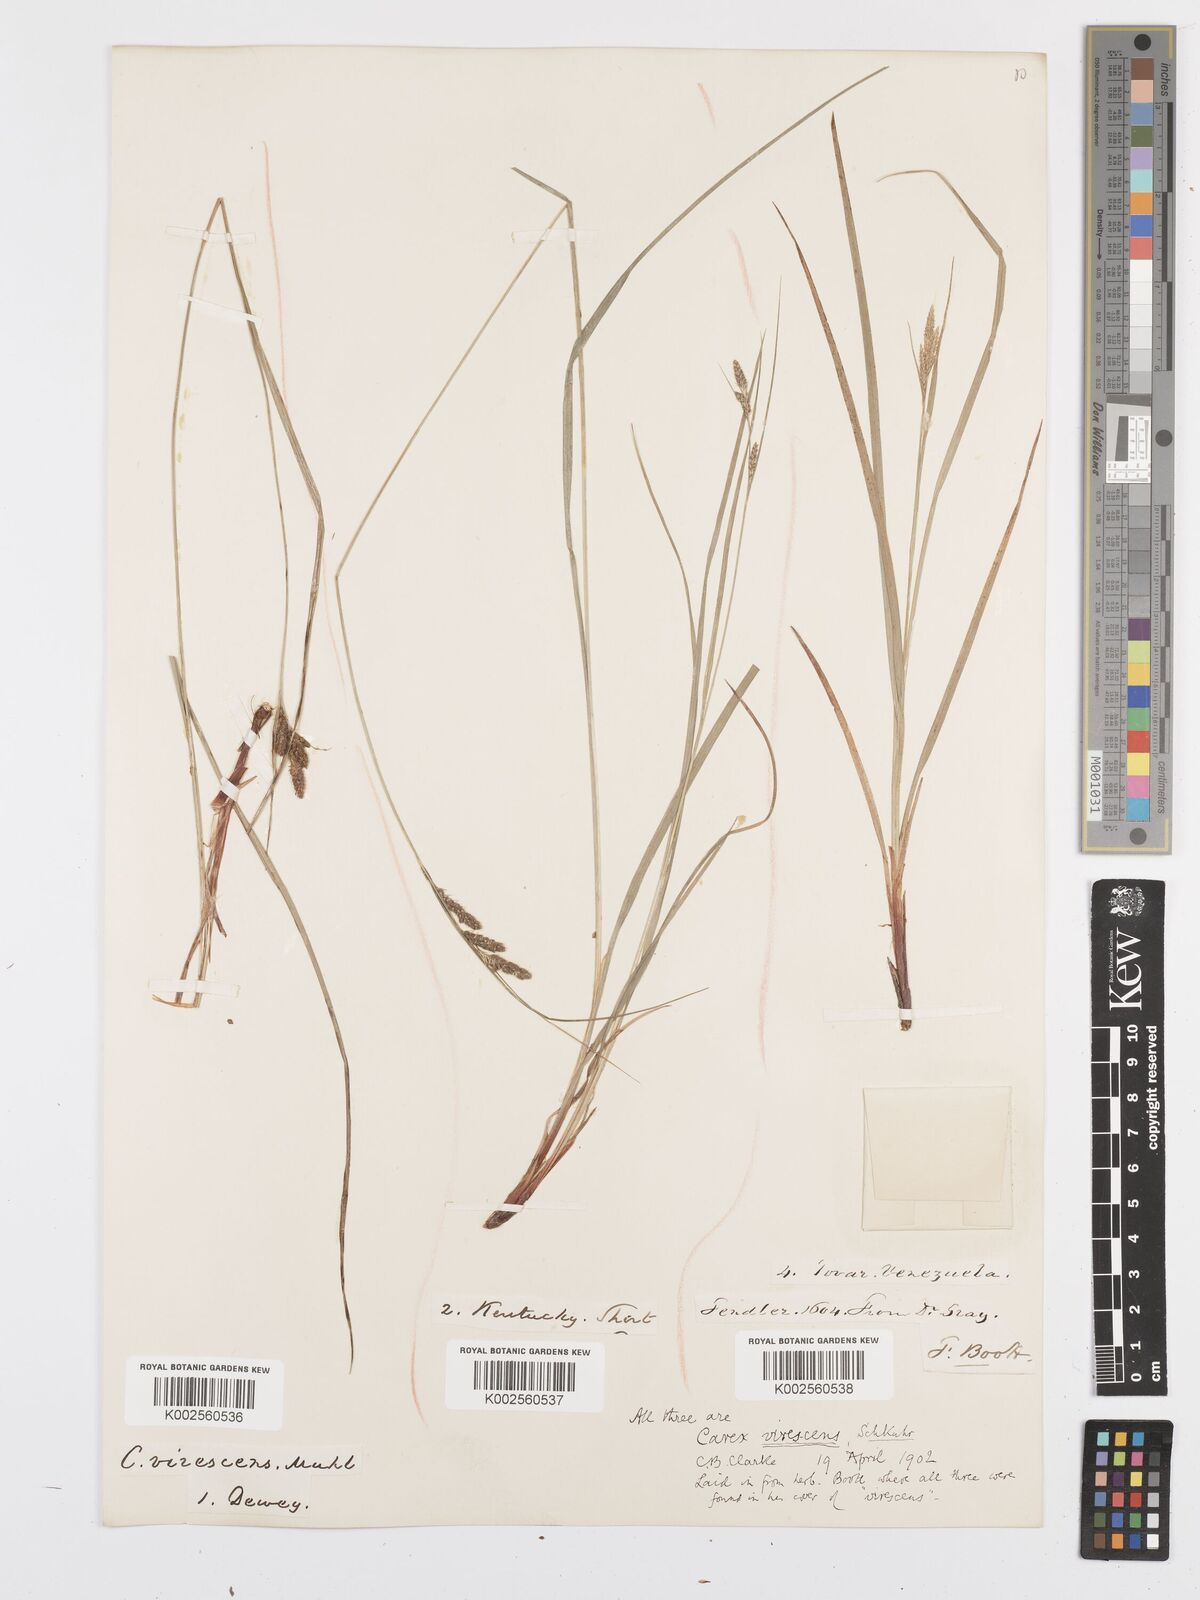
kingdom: Plantae
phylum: Tracheophyta
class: Liliopsida
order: Poales
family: Cyperaceae
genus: Carex
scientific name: Carex virescens
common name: Ribbed sedge
